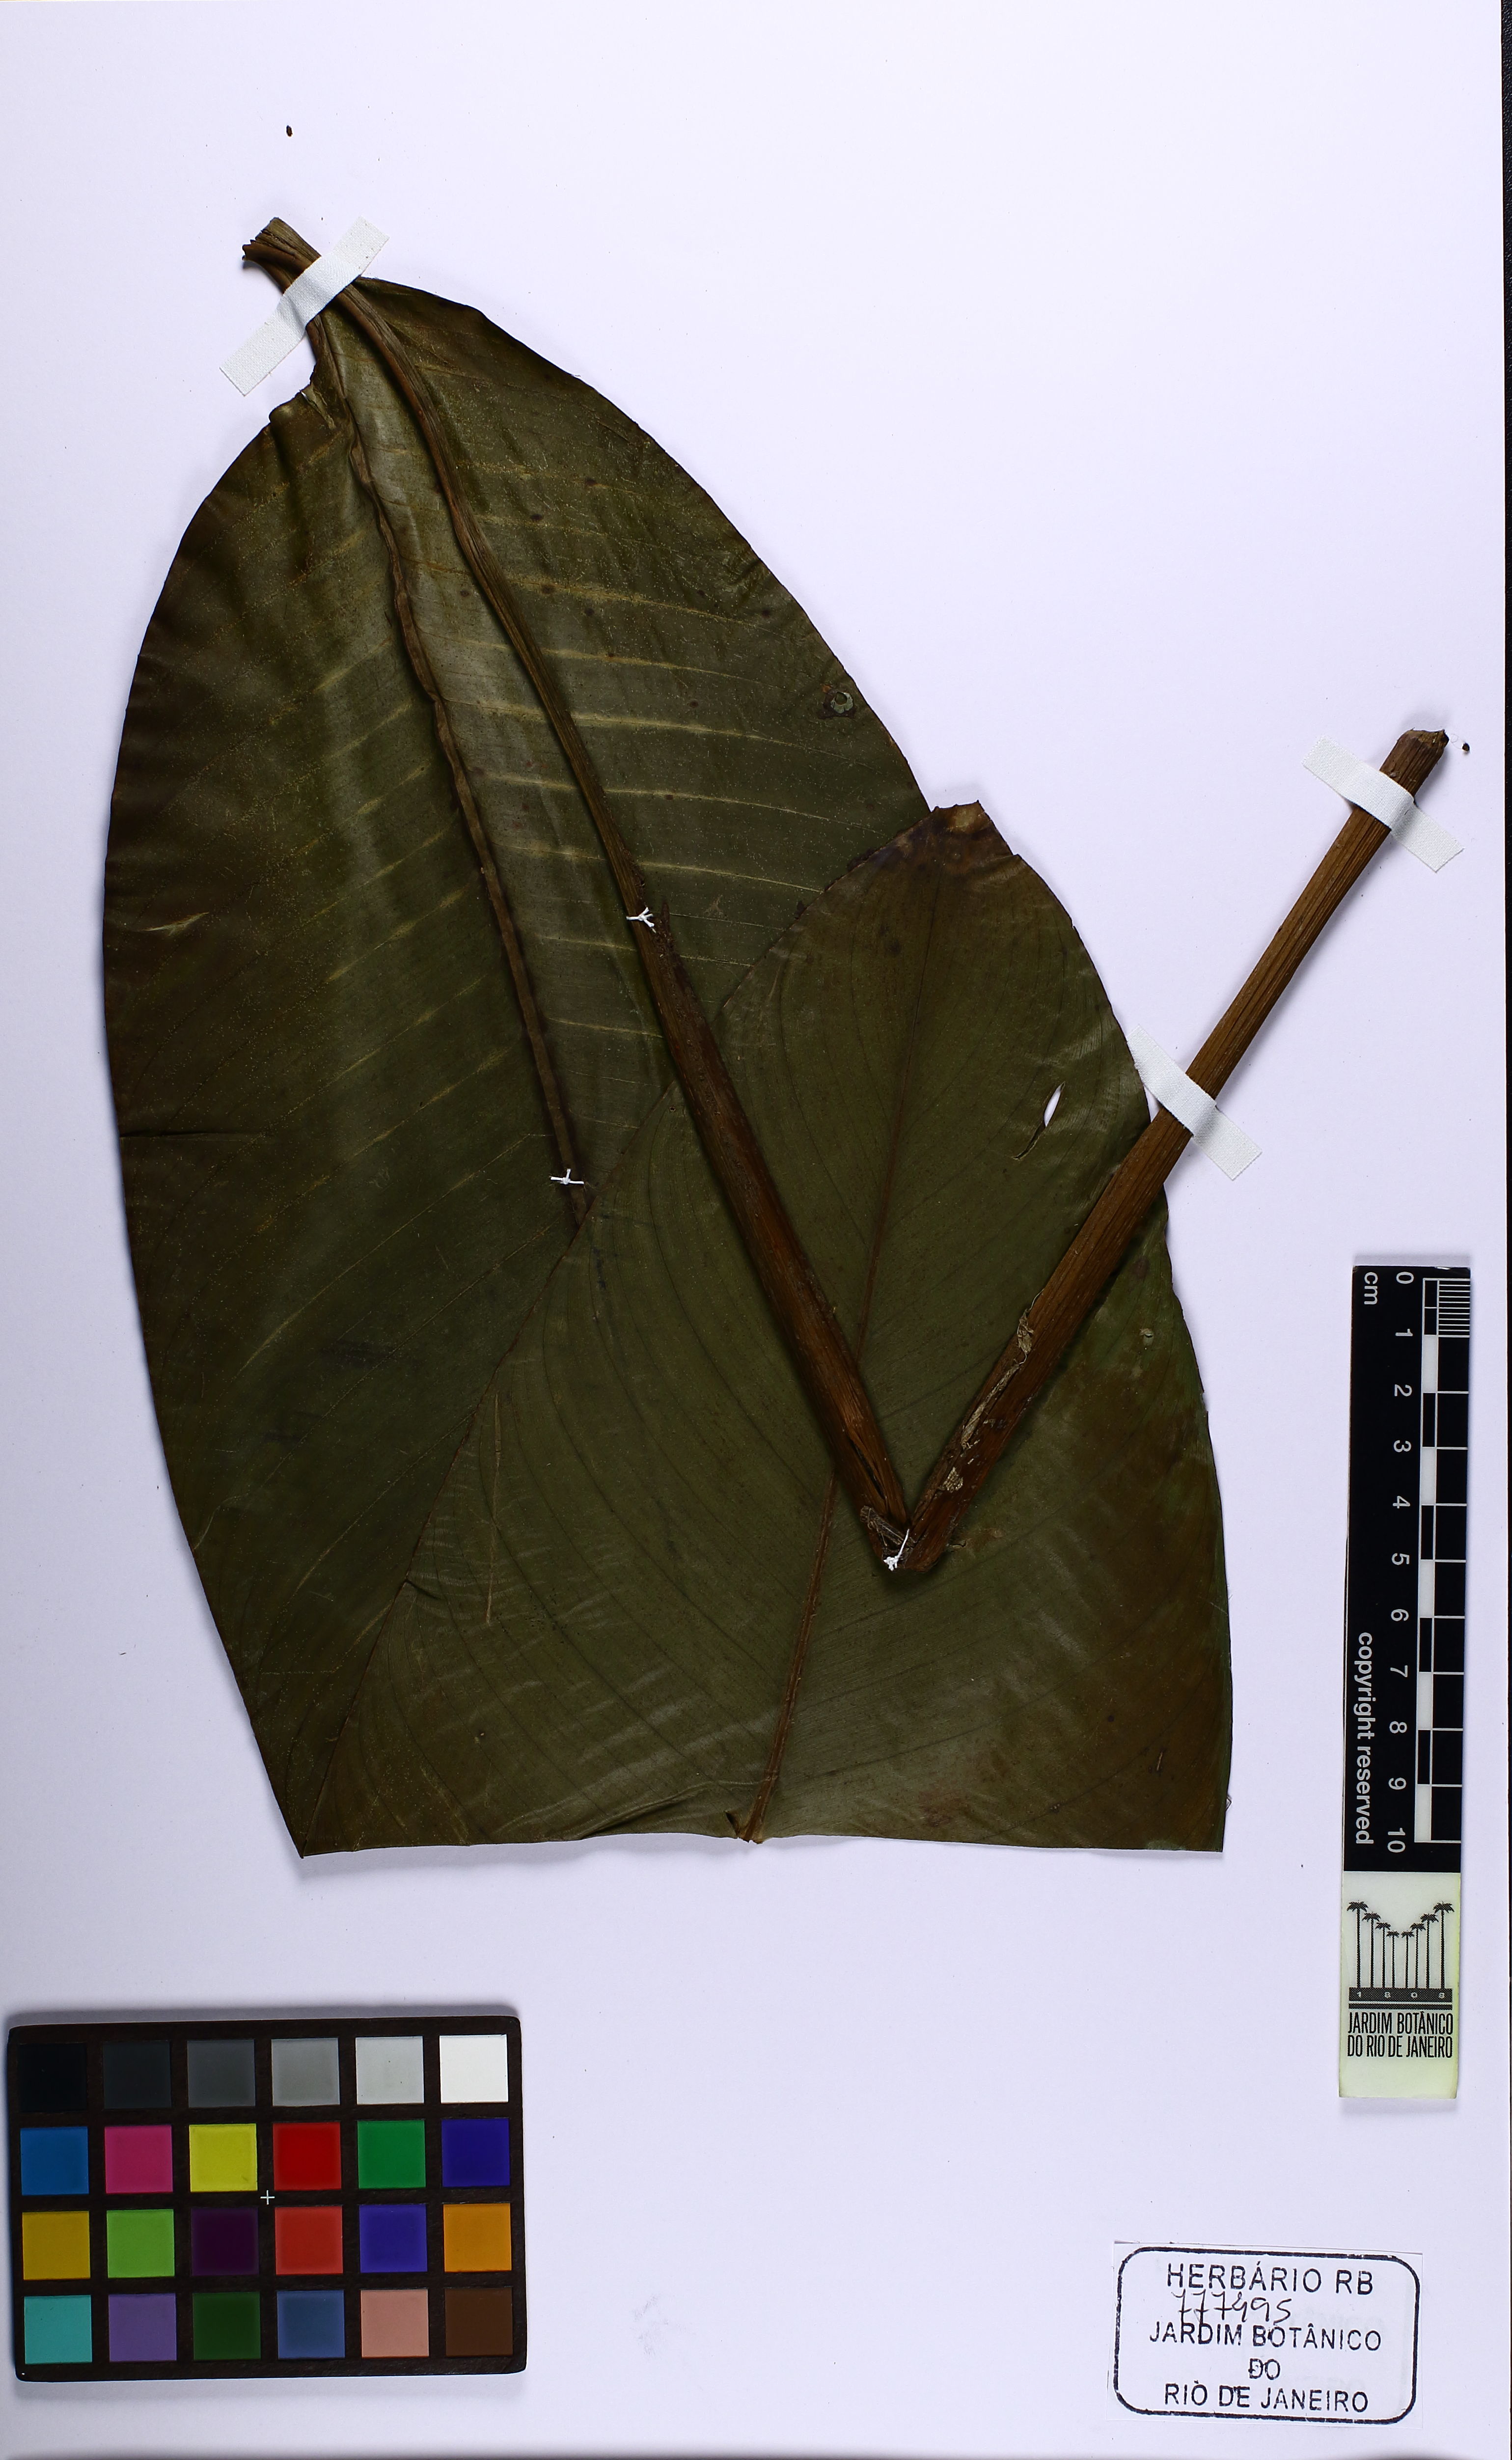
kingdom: Plantae
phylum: Tracheophyta
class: Liliopsida
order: Zingiberales
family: Heliconiaceae
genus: Heliconia
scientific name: Heliconia angusta
